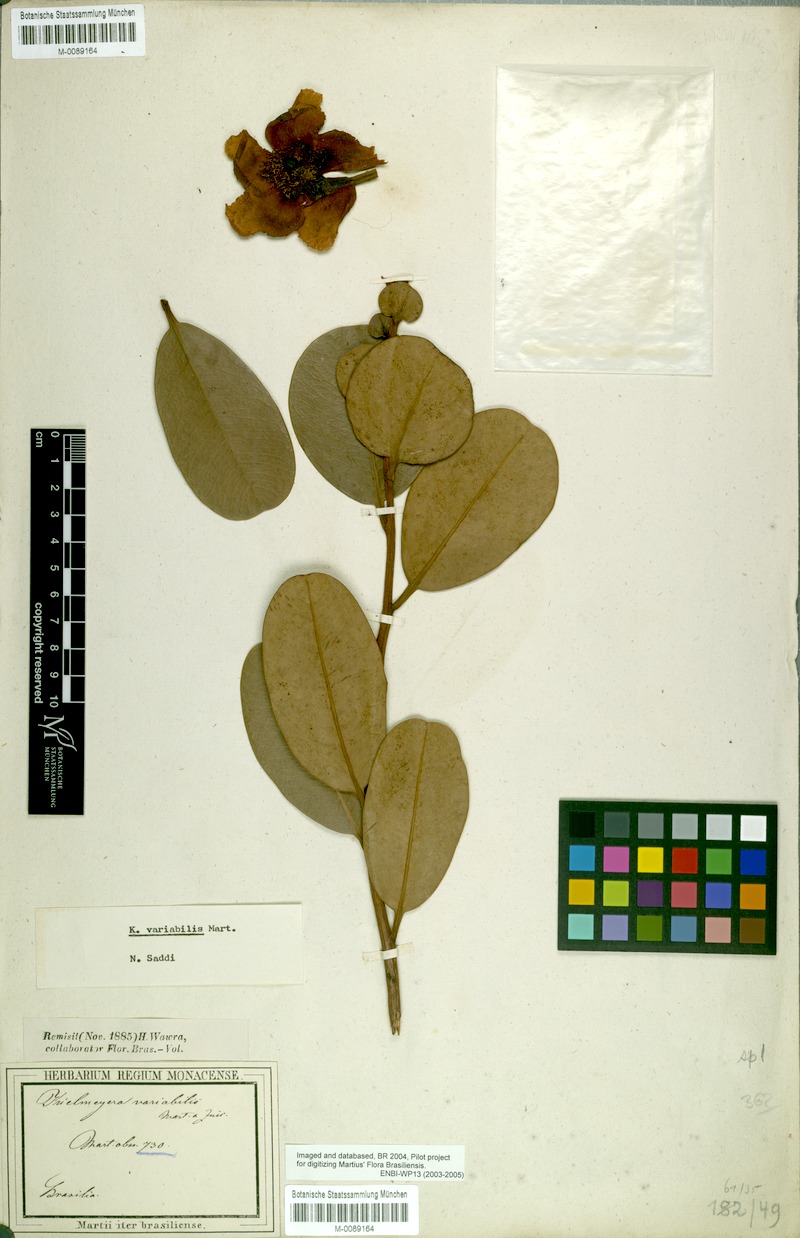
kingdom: Plantae
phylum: Tracheophyta
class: Magnoliopsida
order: Malpighiales
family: Calophyllaceae
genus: Kielmeyera
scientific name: Kielmeyera variabilis
